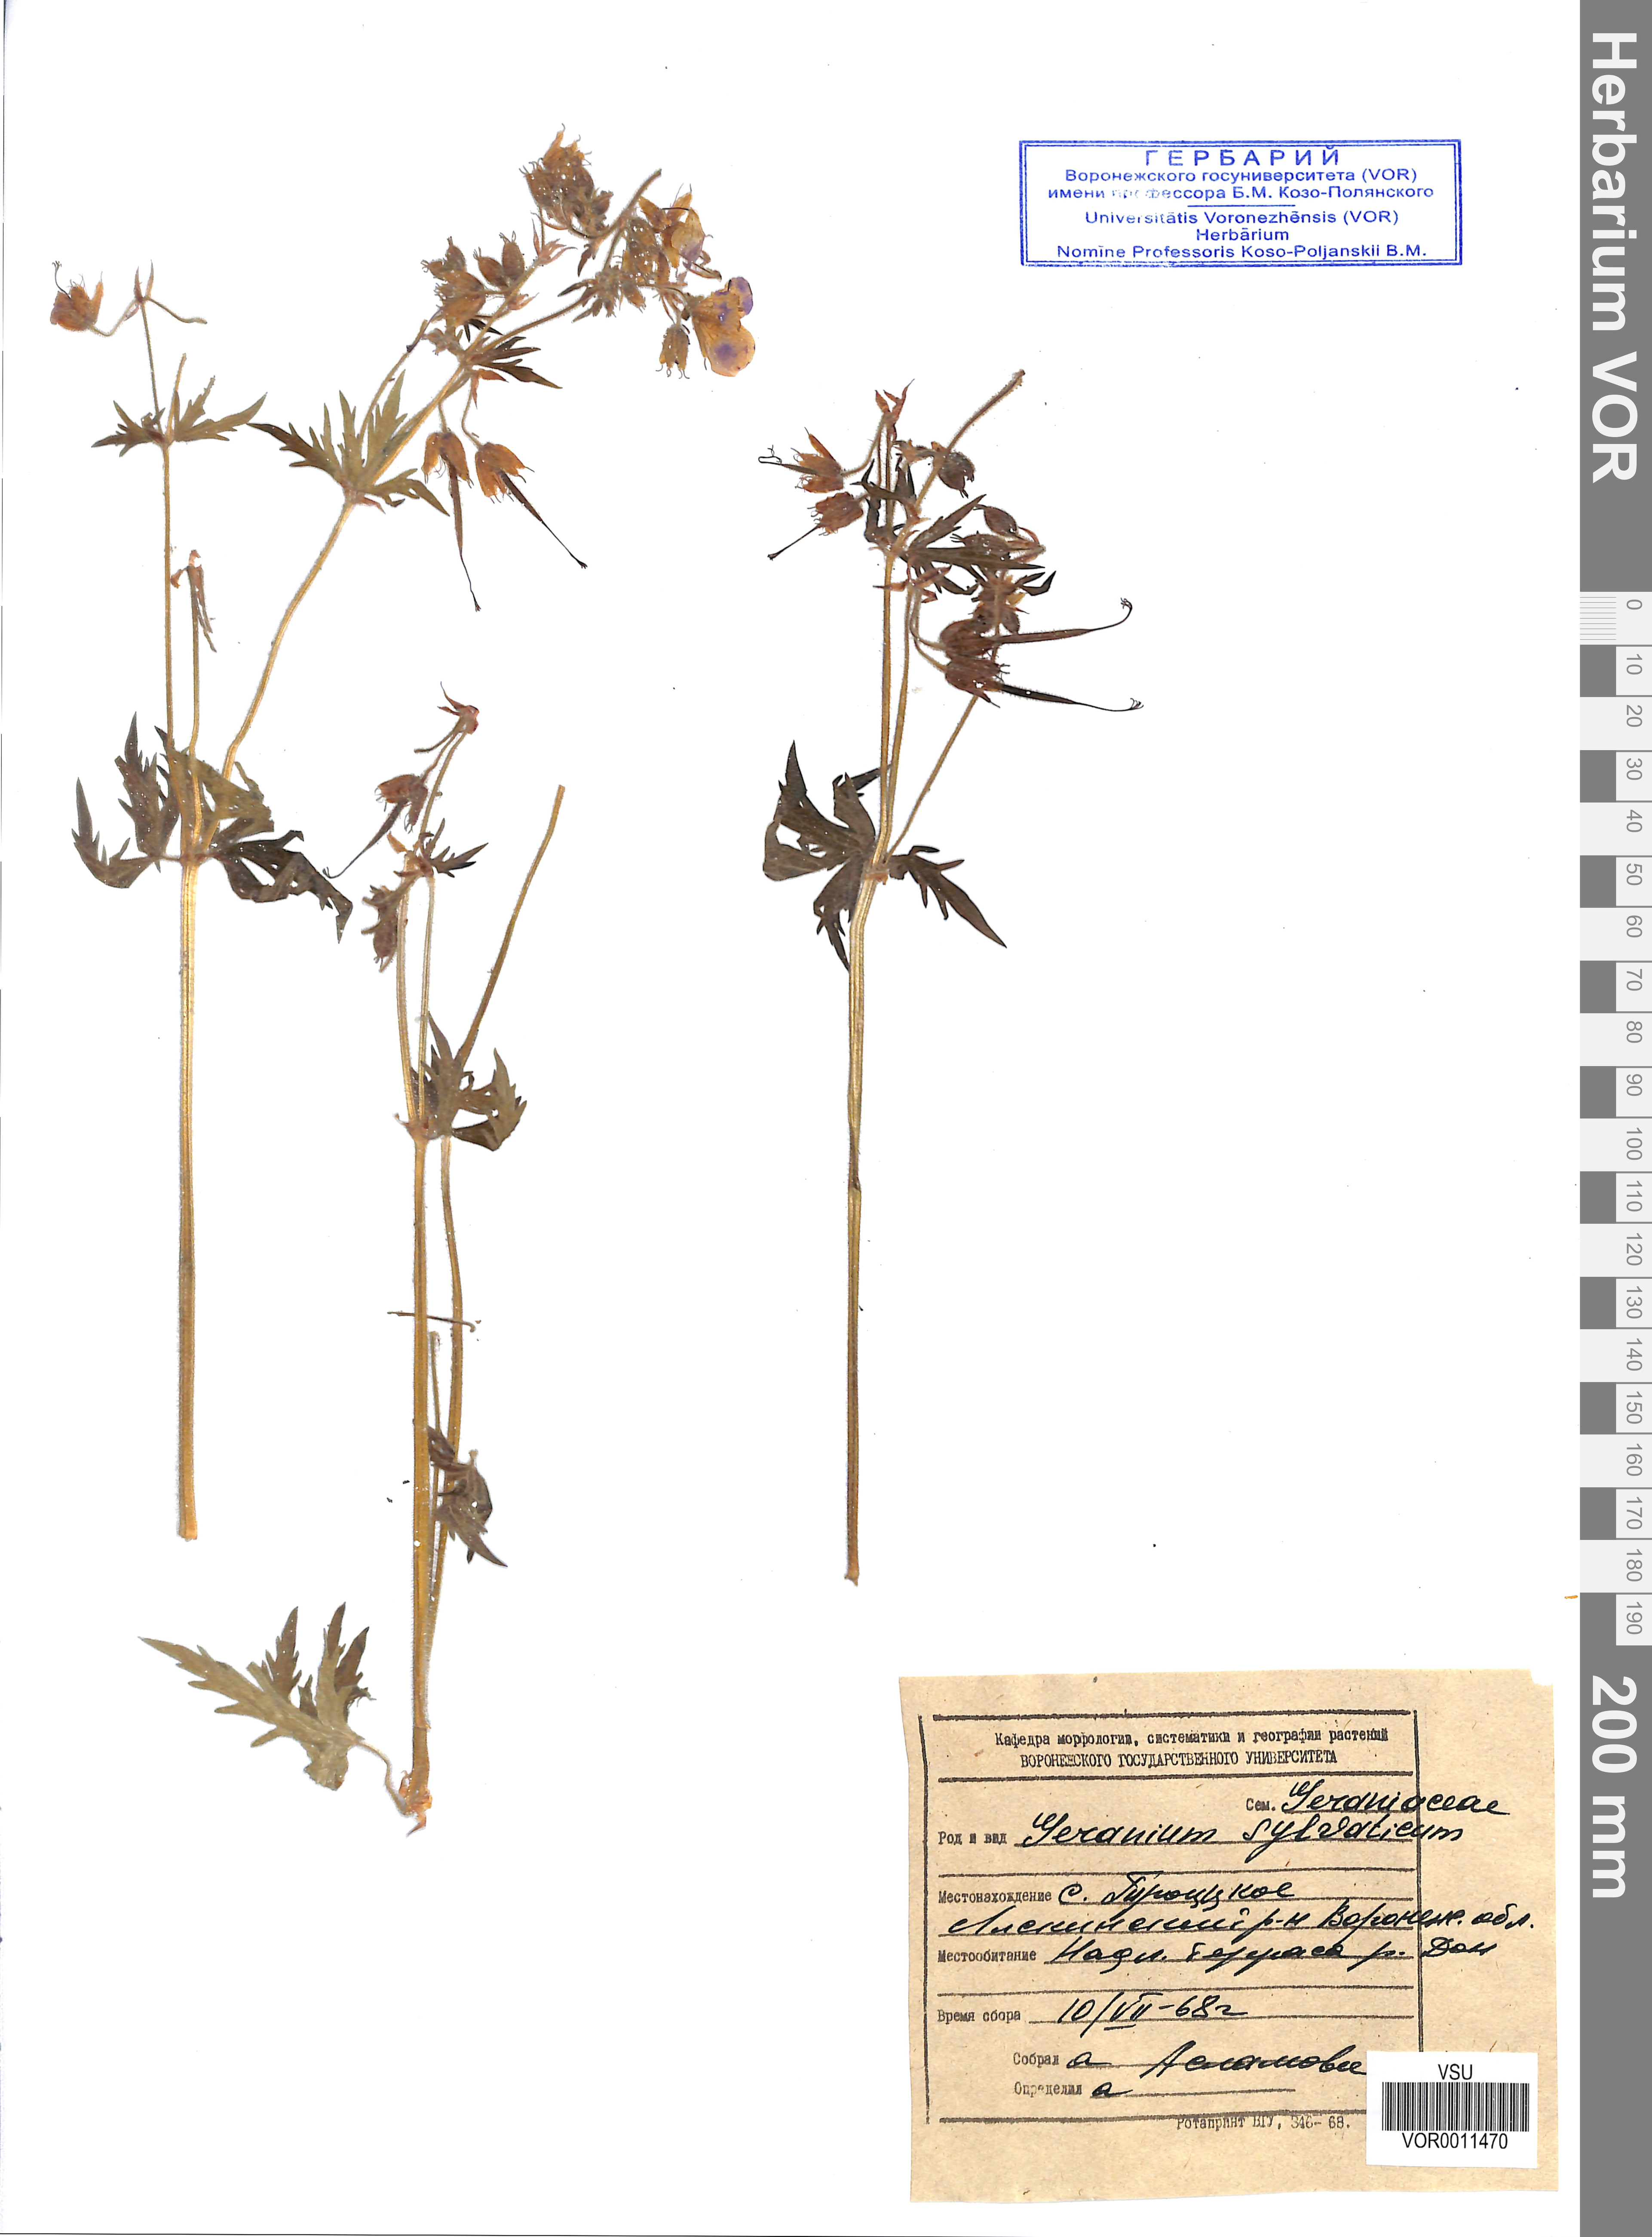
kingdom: Plantae
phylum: Tracheophyta
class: Magnoliopsida
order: Geraniales
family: Geraniaceae
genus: Geranium
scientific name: Geranium sibiricum
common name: Siberian crane's-bill
